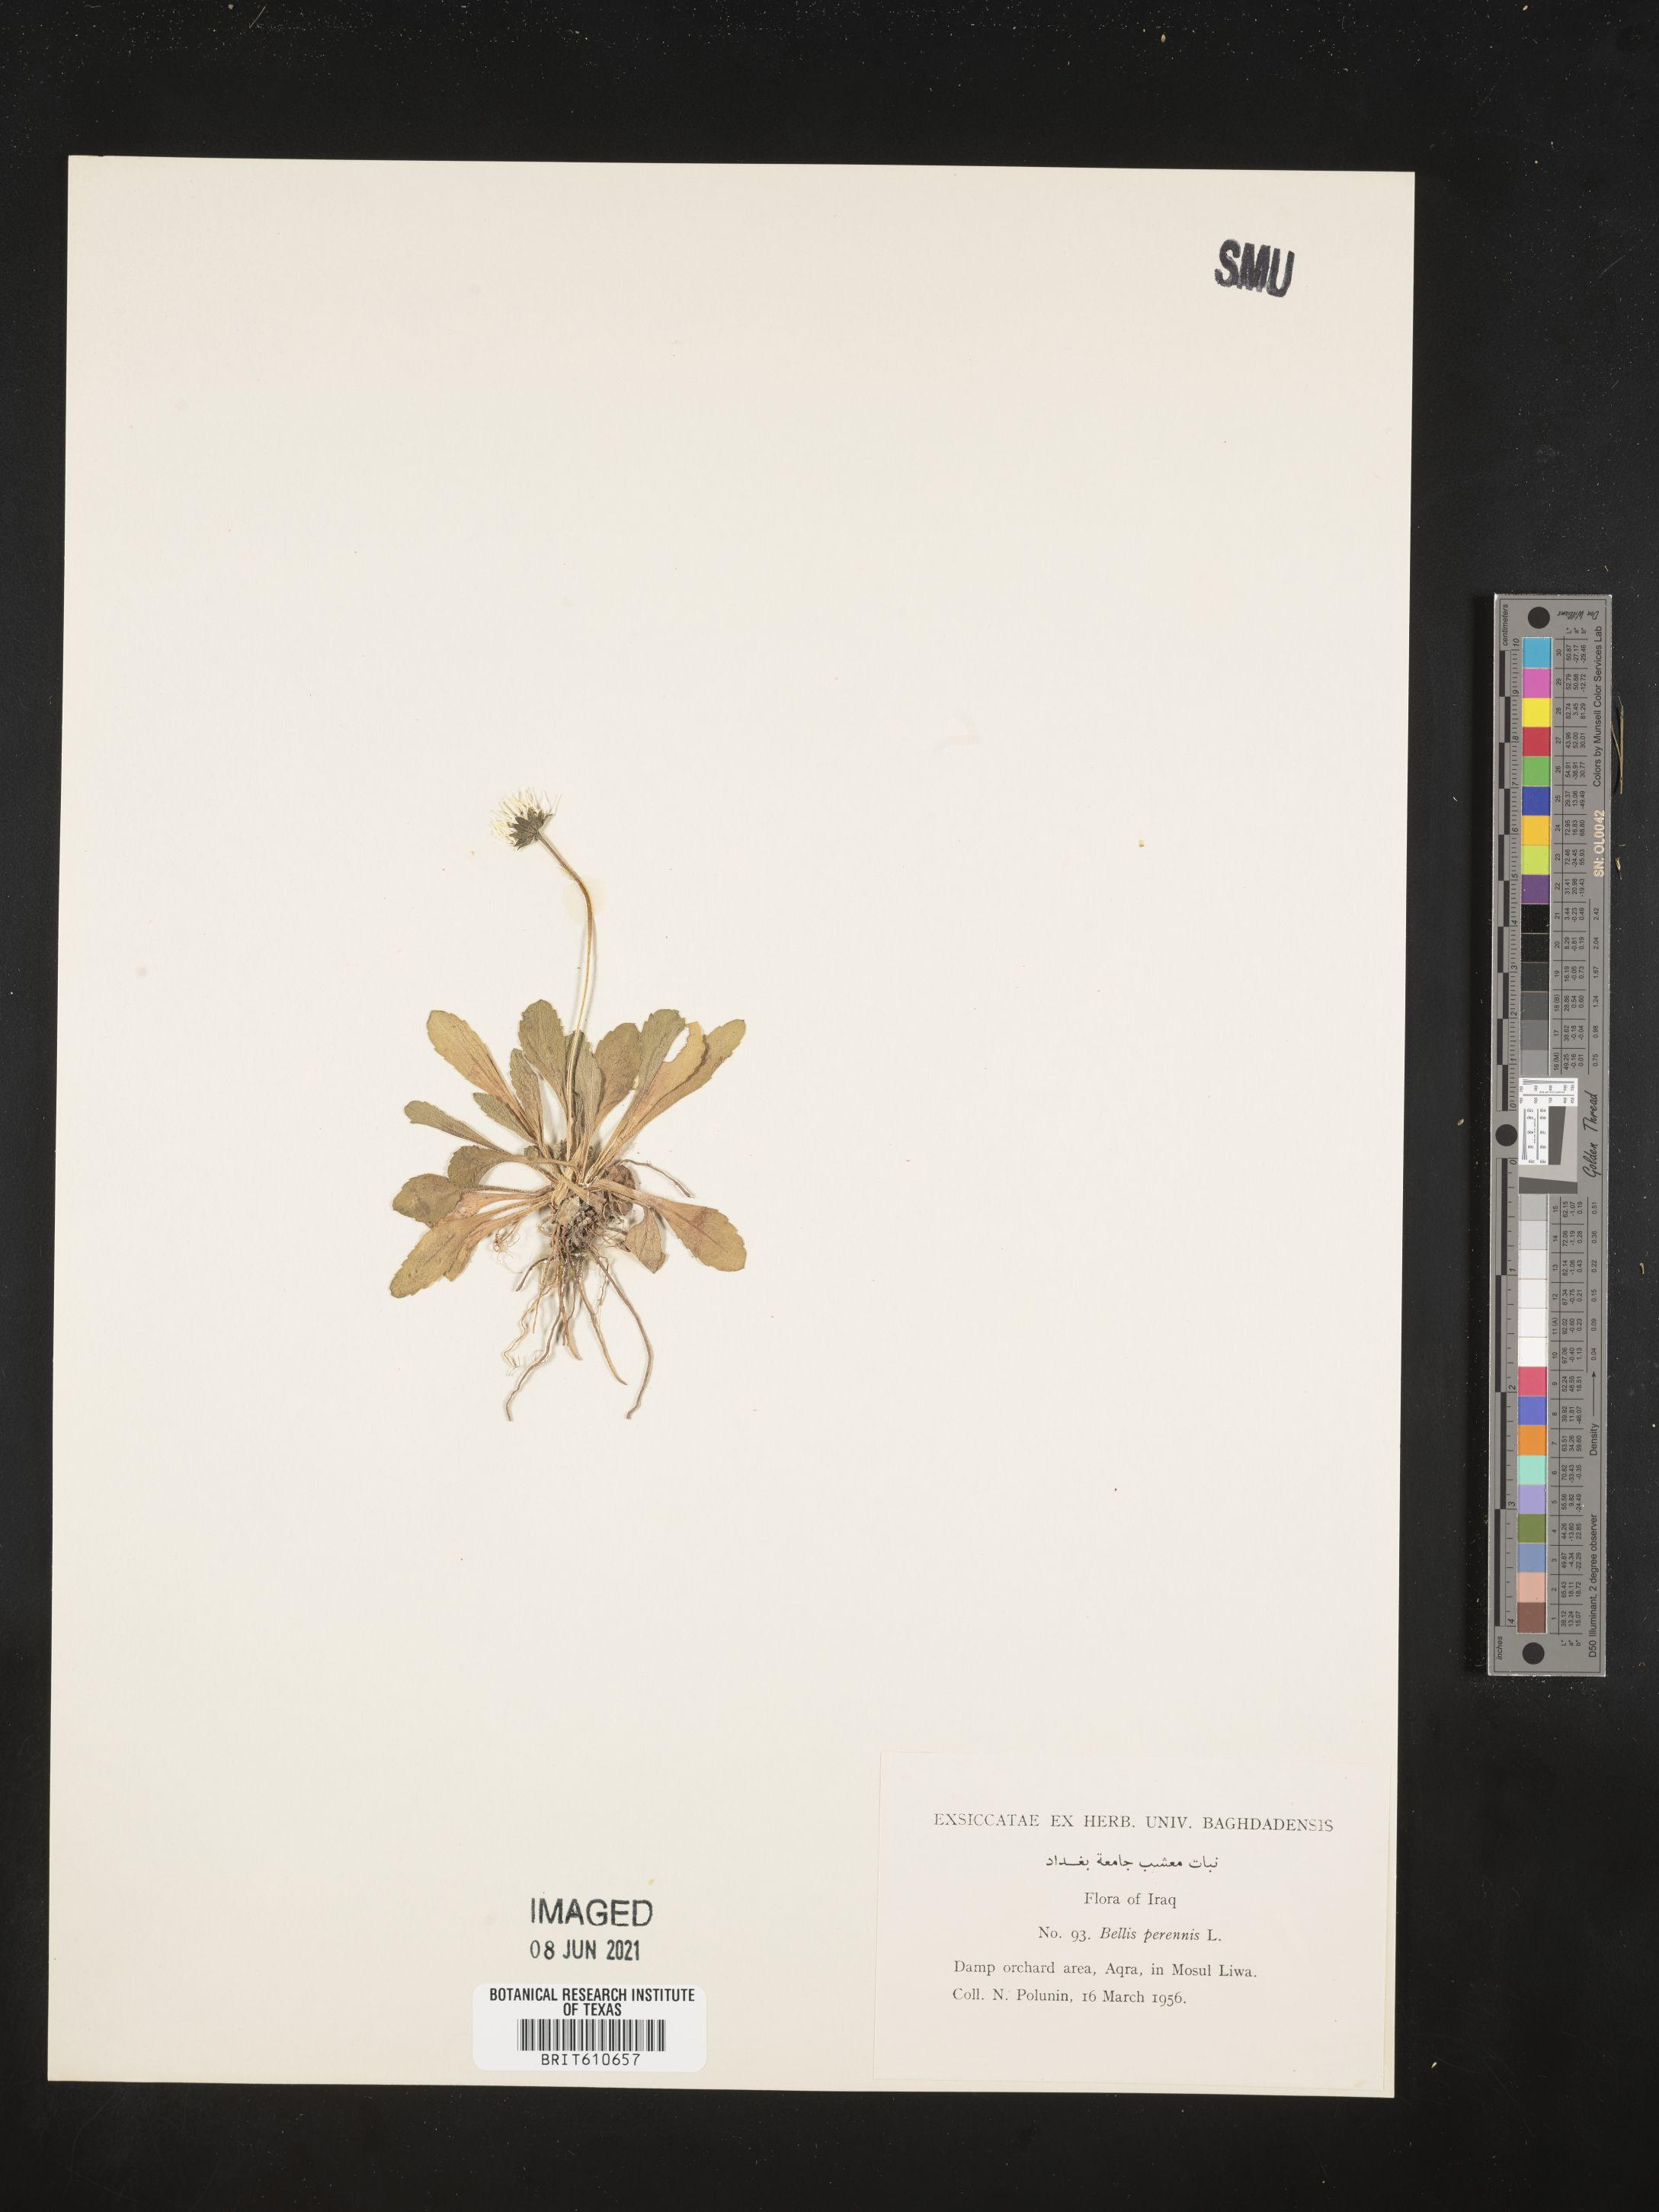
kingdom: Plantae
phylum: Tracheophyta
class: Magnoliopsida
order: Asterales
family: Asteraceae
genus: Bellis
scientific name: Bellis perennis
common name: Lawndaisy
